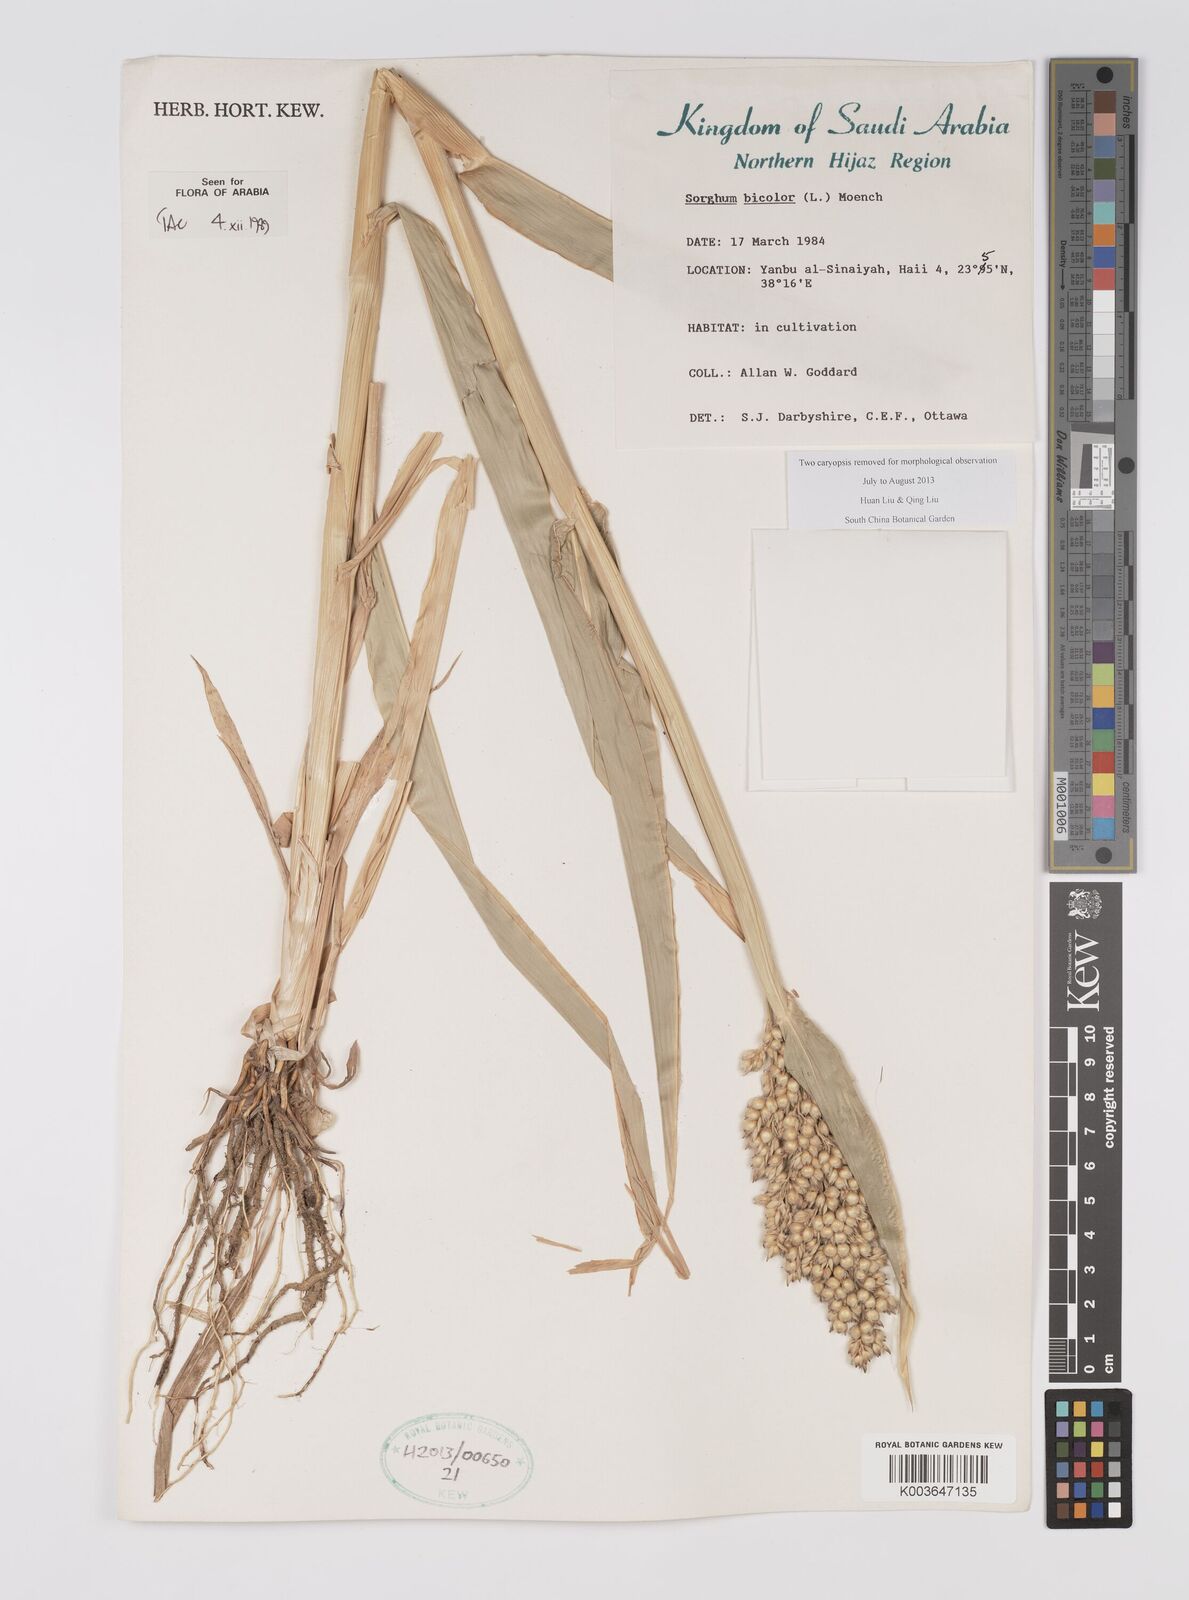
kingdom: Plantae
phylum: Tracheophyta
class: Liliopsida
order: Poales
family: Poaceae
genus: Sorghum
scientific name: Sorghum bicolor
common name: Sorghum
